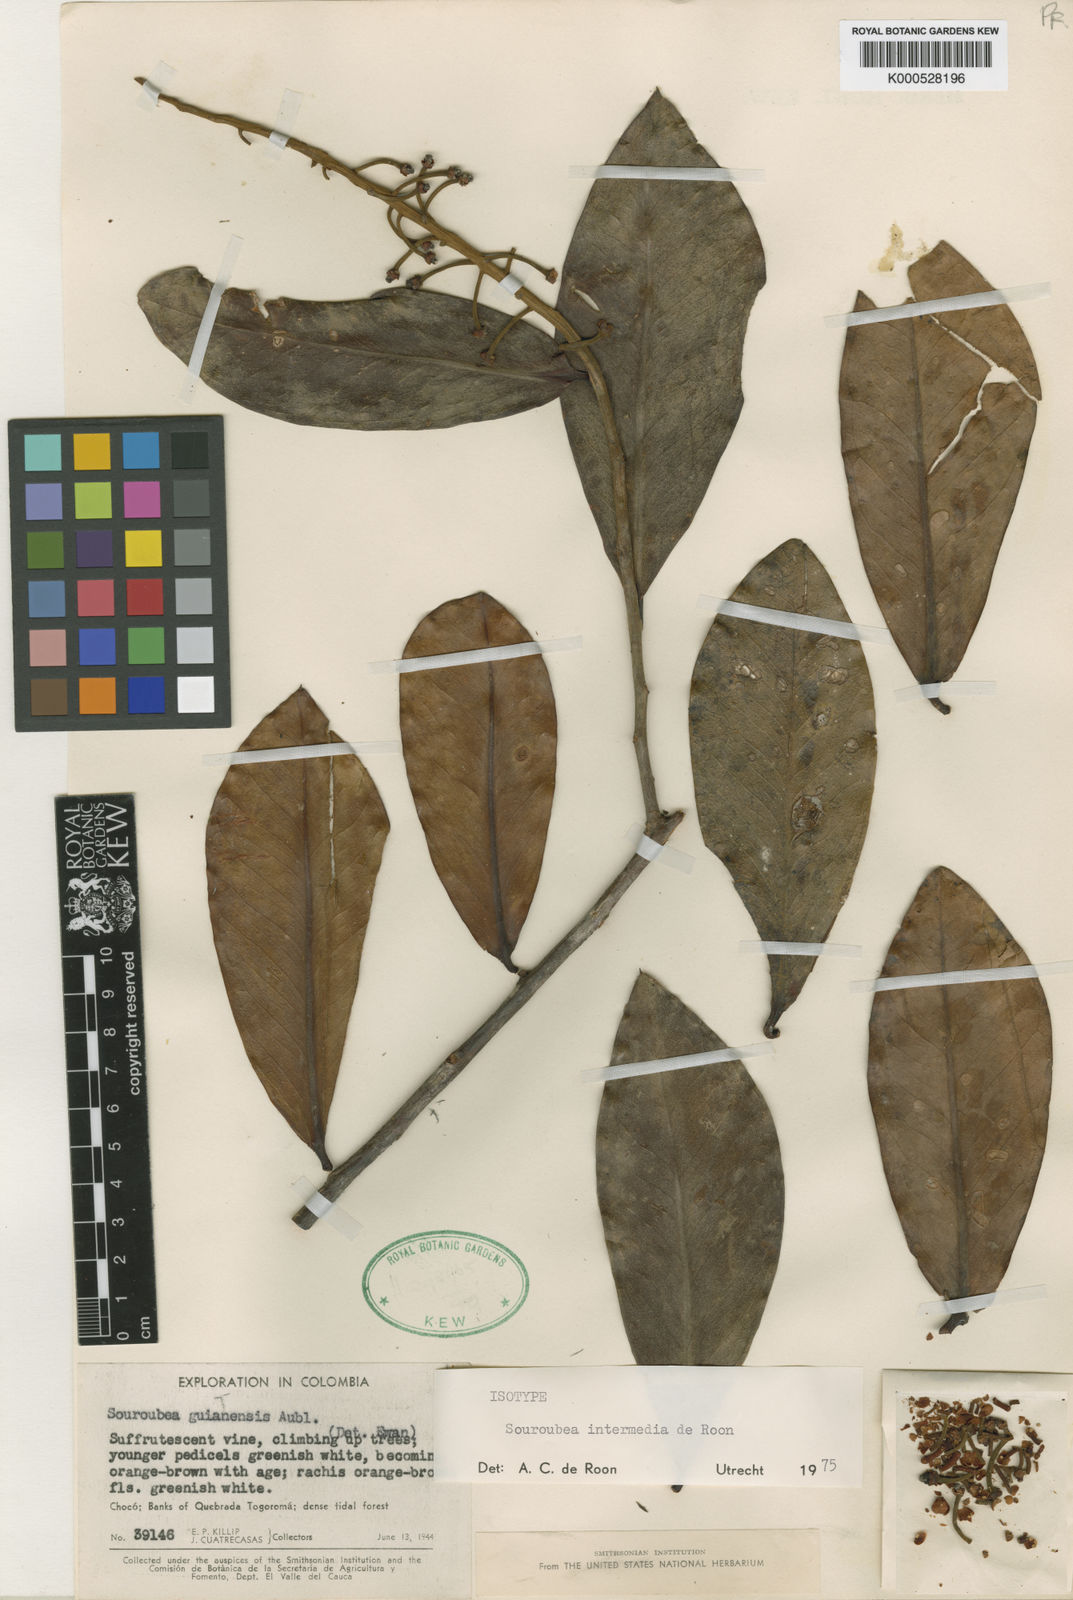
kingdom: Plantae
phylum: Tracheophyta
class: Magnoliopsida
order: Ericales
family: Marcgraviaceae
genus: Souroubea
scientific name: Souroubea intermedia
